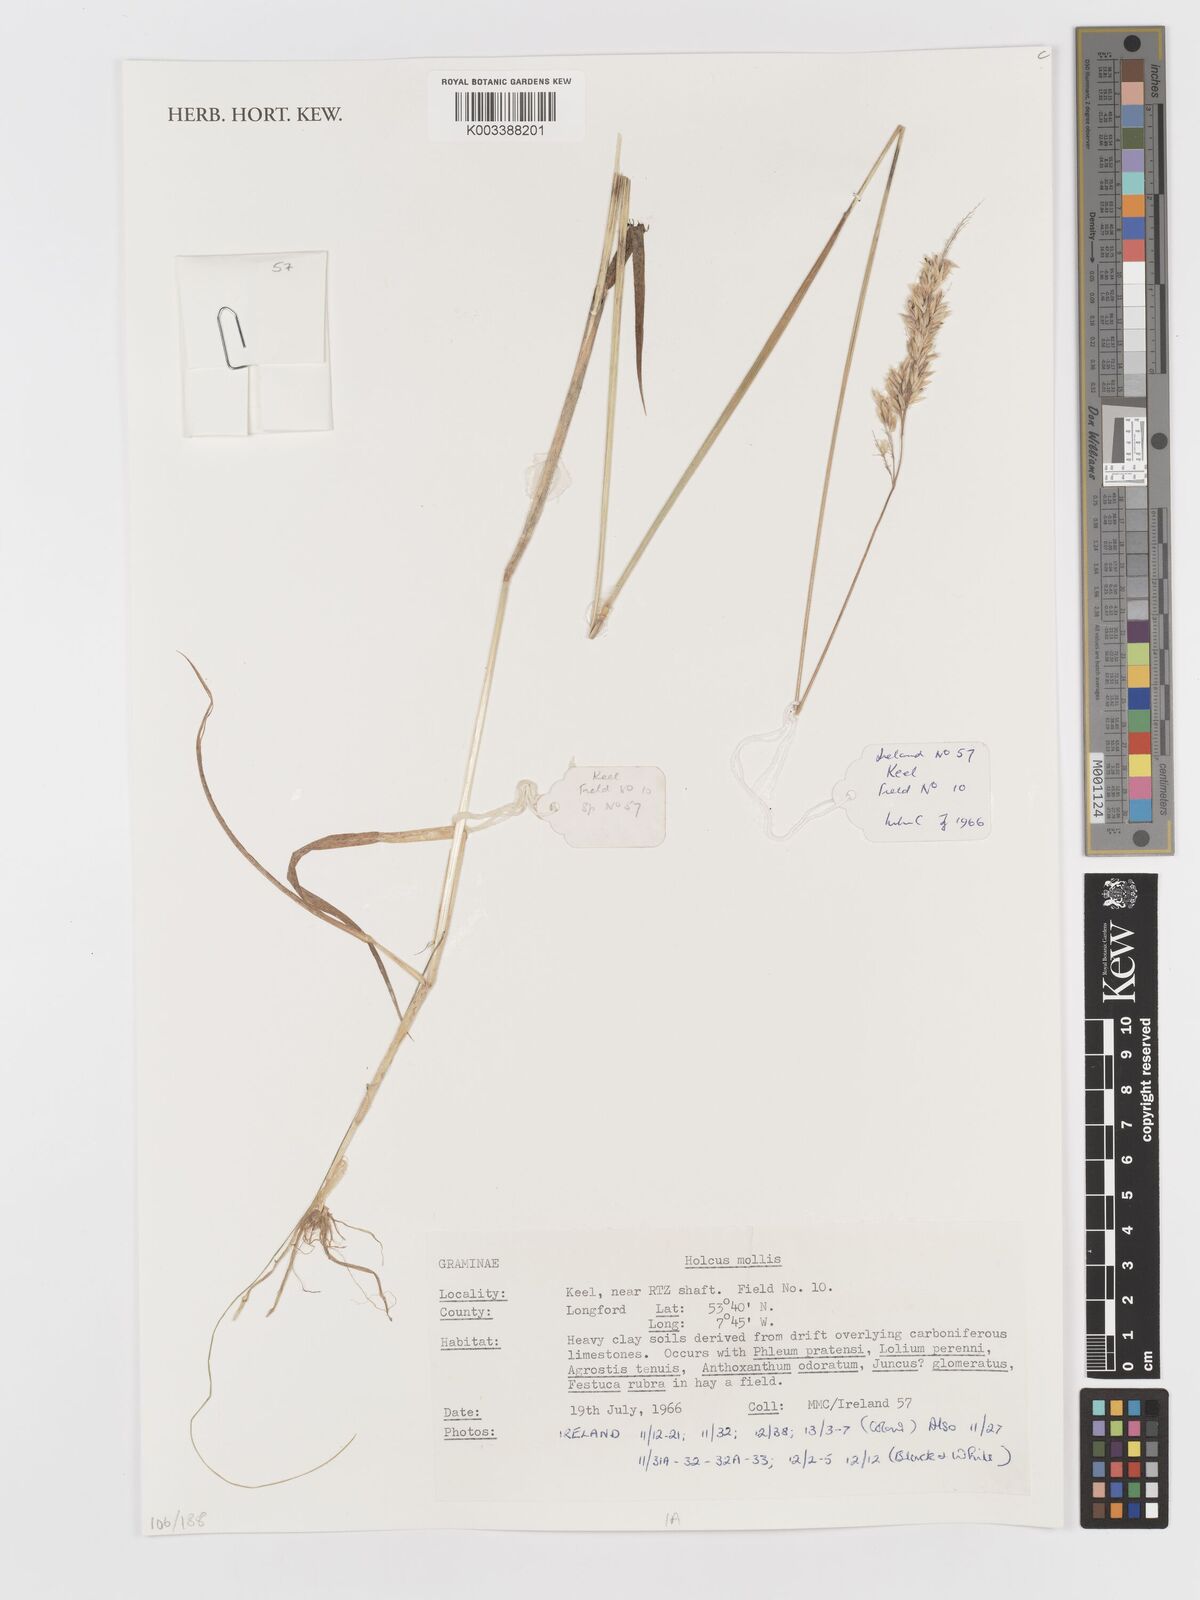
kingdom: Plantae
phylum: Tracheophyta
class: Liliopsida
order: Poales
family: Poaceae
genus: Holcus
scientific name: Holcus mollis
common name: Creeping velvetgrass
